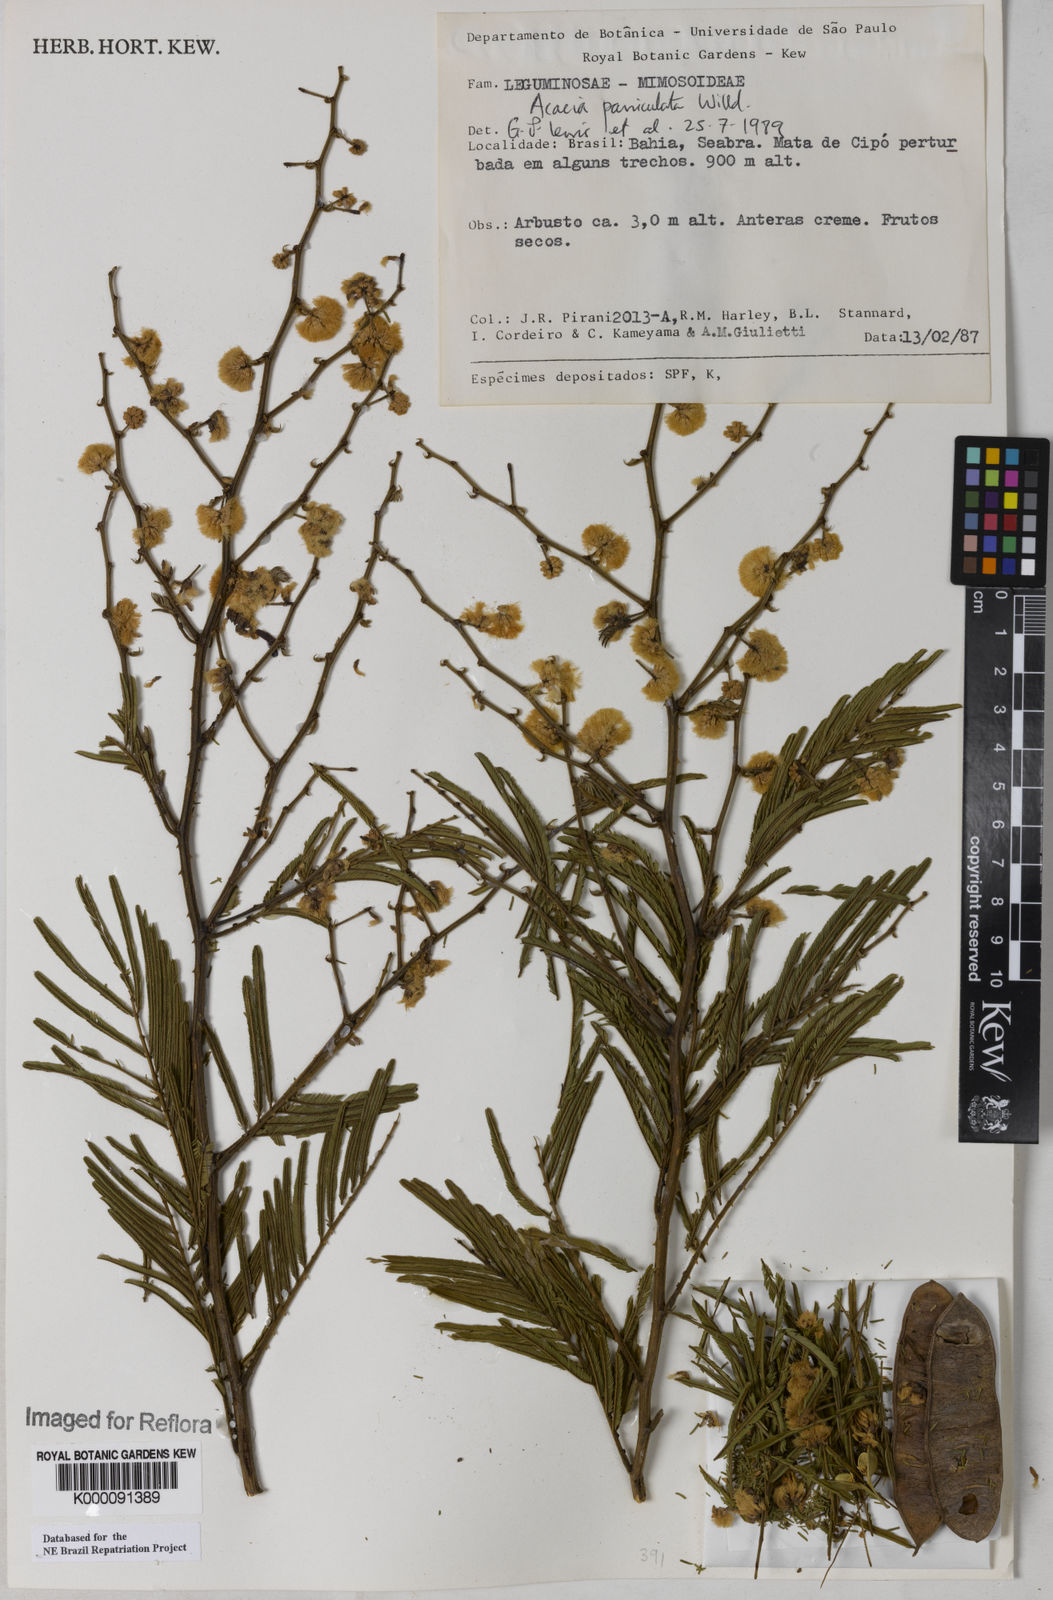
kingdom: Plantae
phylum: Tracheophyta
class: Magnoliopsida
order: Fabales
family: Fabaceae
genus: Senegalia
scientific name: Senegalia tenuifolia
